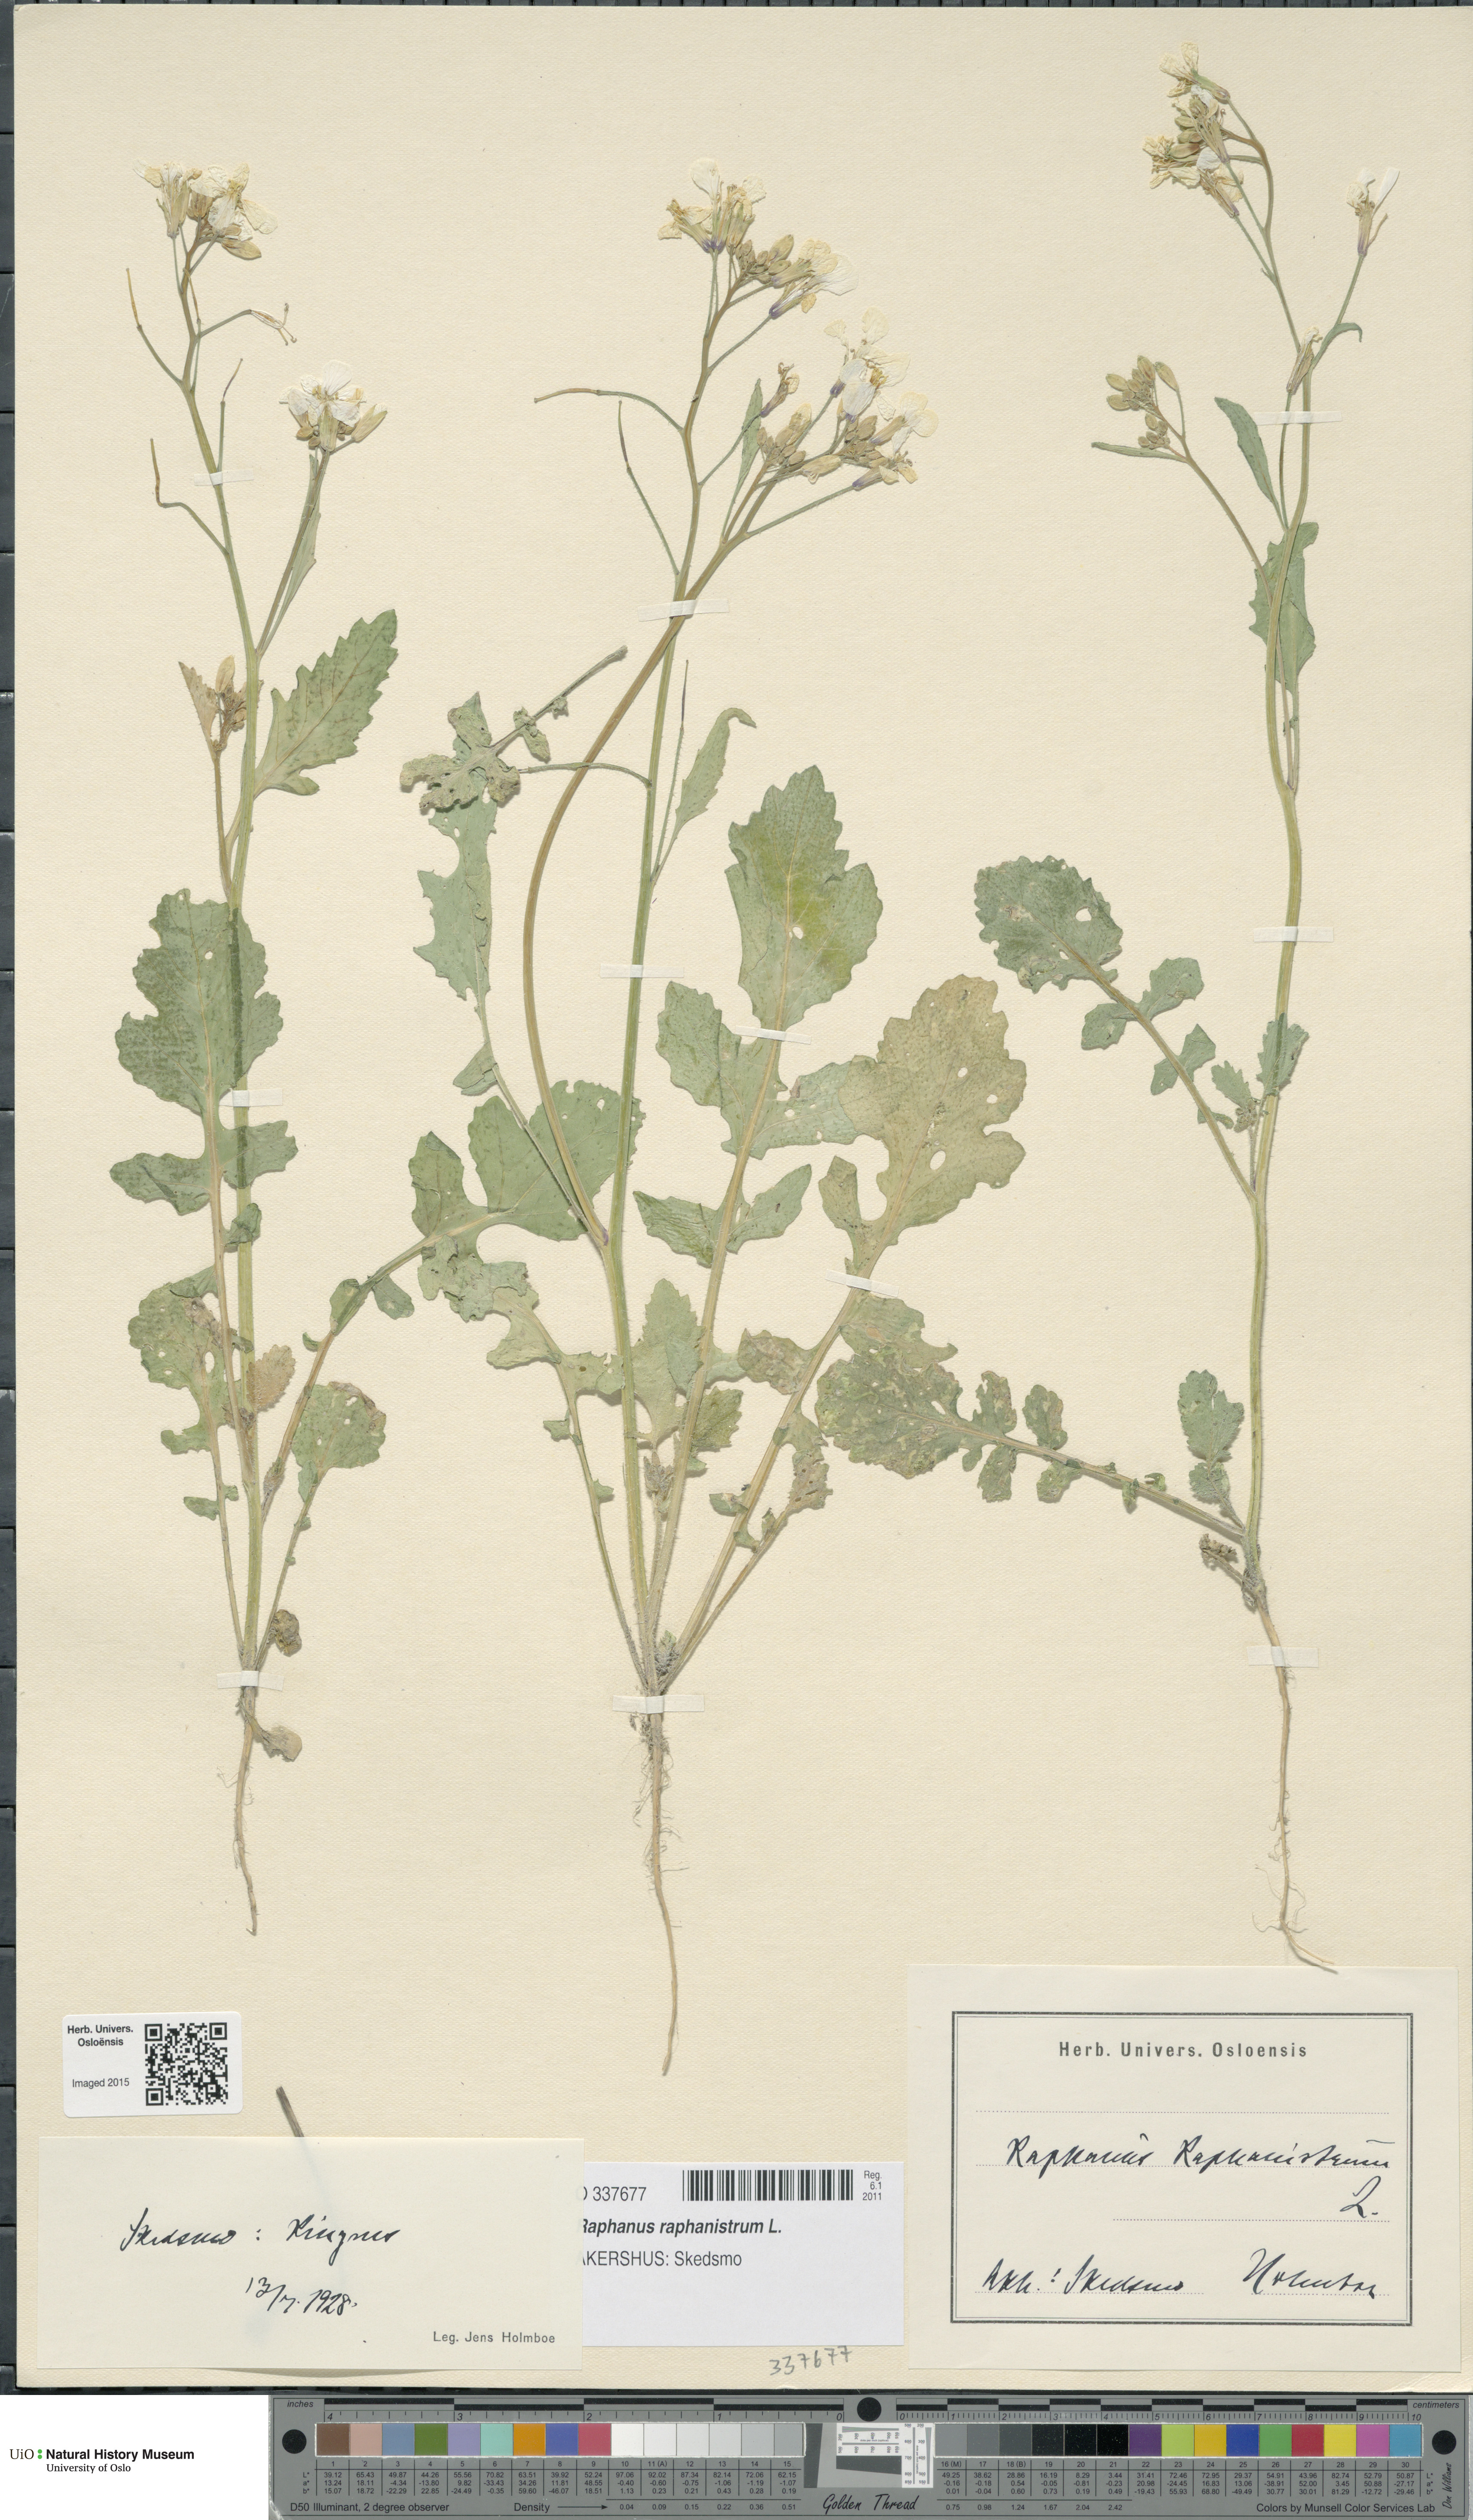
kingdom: Plantae
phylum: Tracheophyta
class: Magnoliopsida
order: Brassicales
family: Brassicaceae
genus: Raphanus
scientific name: Raphanus raphanistrum
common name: Wild radish
